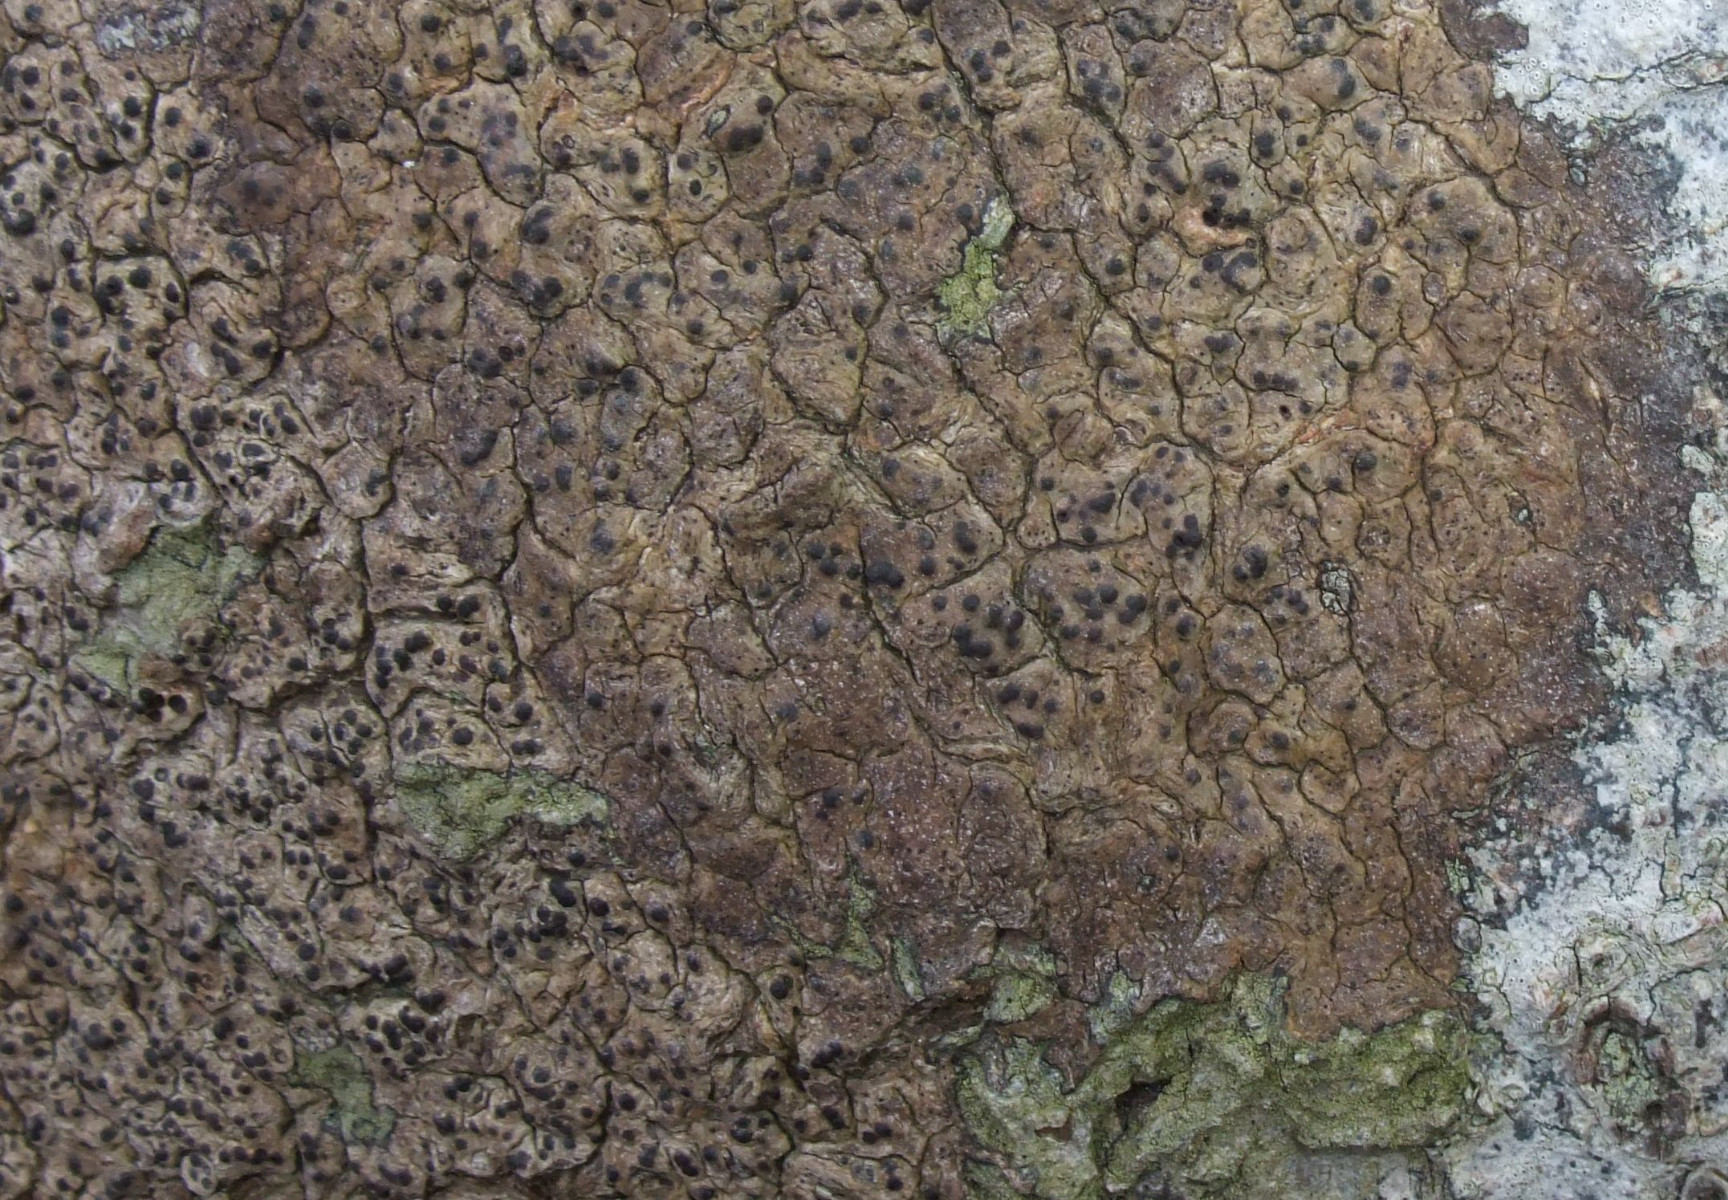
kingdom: Fungi
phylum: Ascomycota
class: Eurotiomycetes
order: Pyrenulales
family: Pyrenulaceae
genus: Pyrenula
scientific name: Pyrenula nitida
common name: glinsende kernelav
